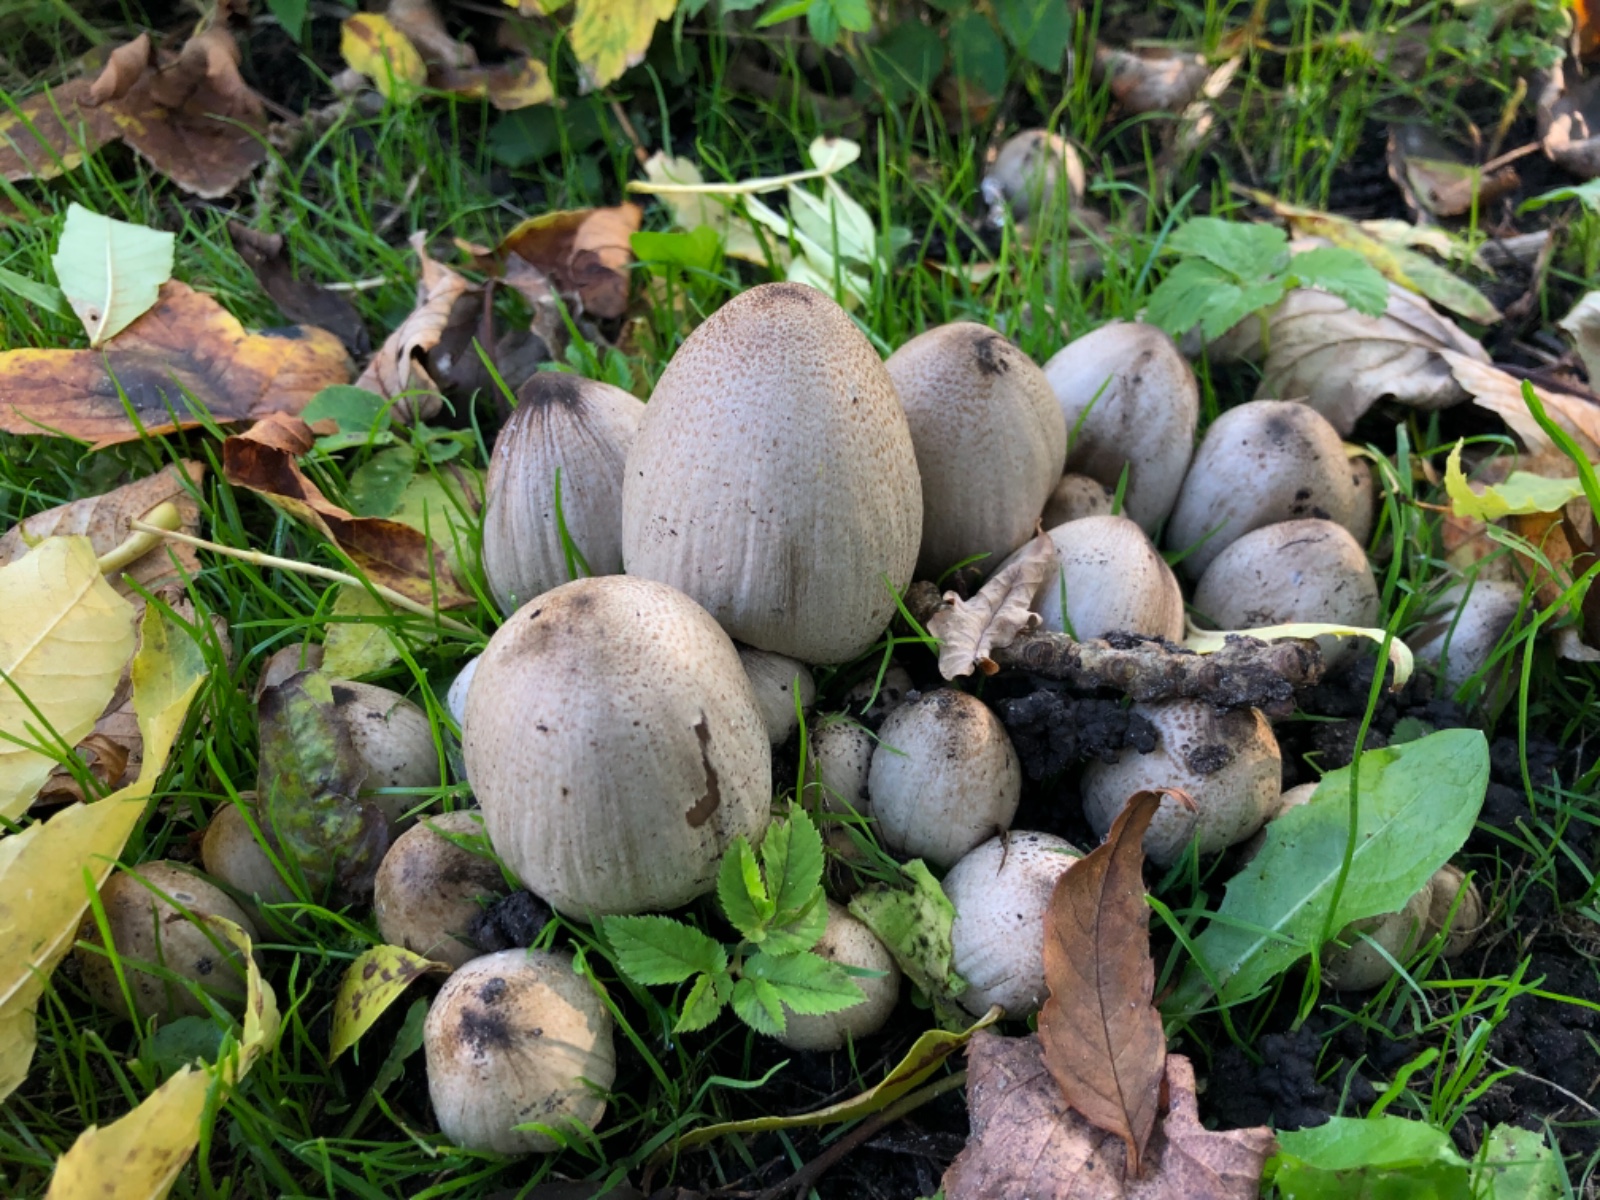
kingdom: Fungi
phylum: Basidiomycota
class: Agaricomycetes
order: Agaricales
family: Psathyrellaceae
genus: Coprinopsis
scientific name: Coprinopsis romagnesiana
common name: brunskællet blækhat
